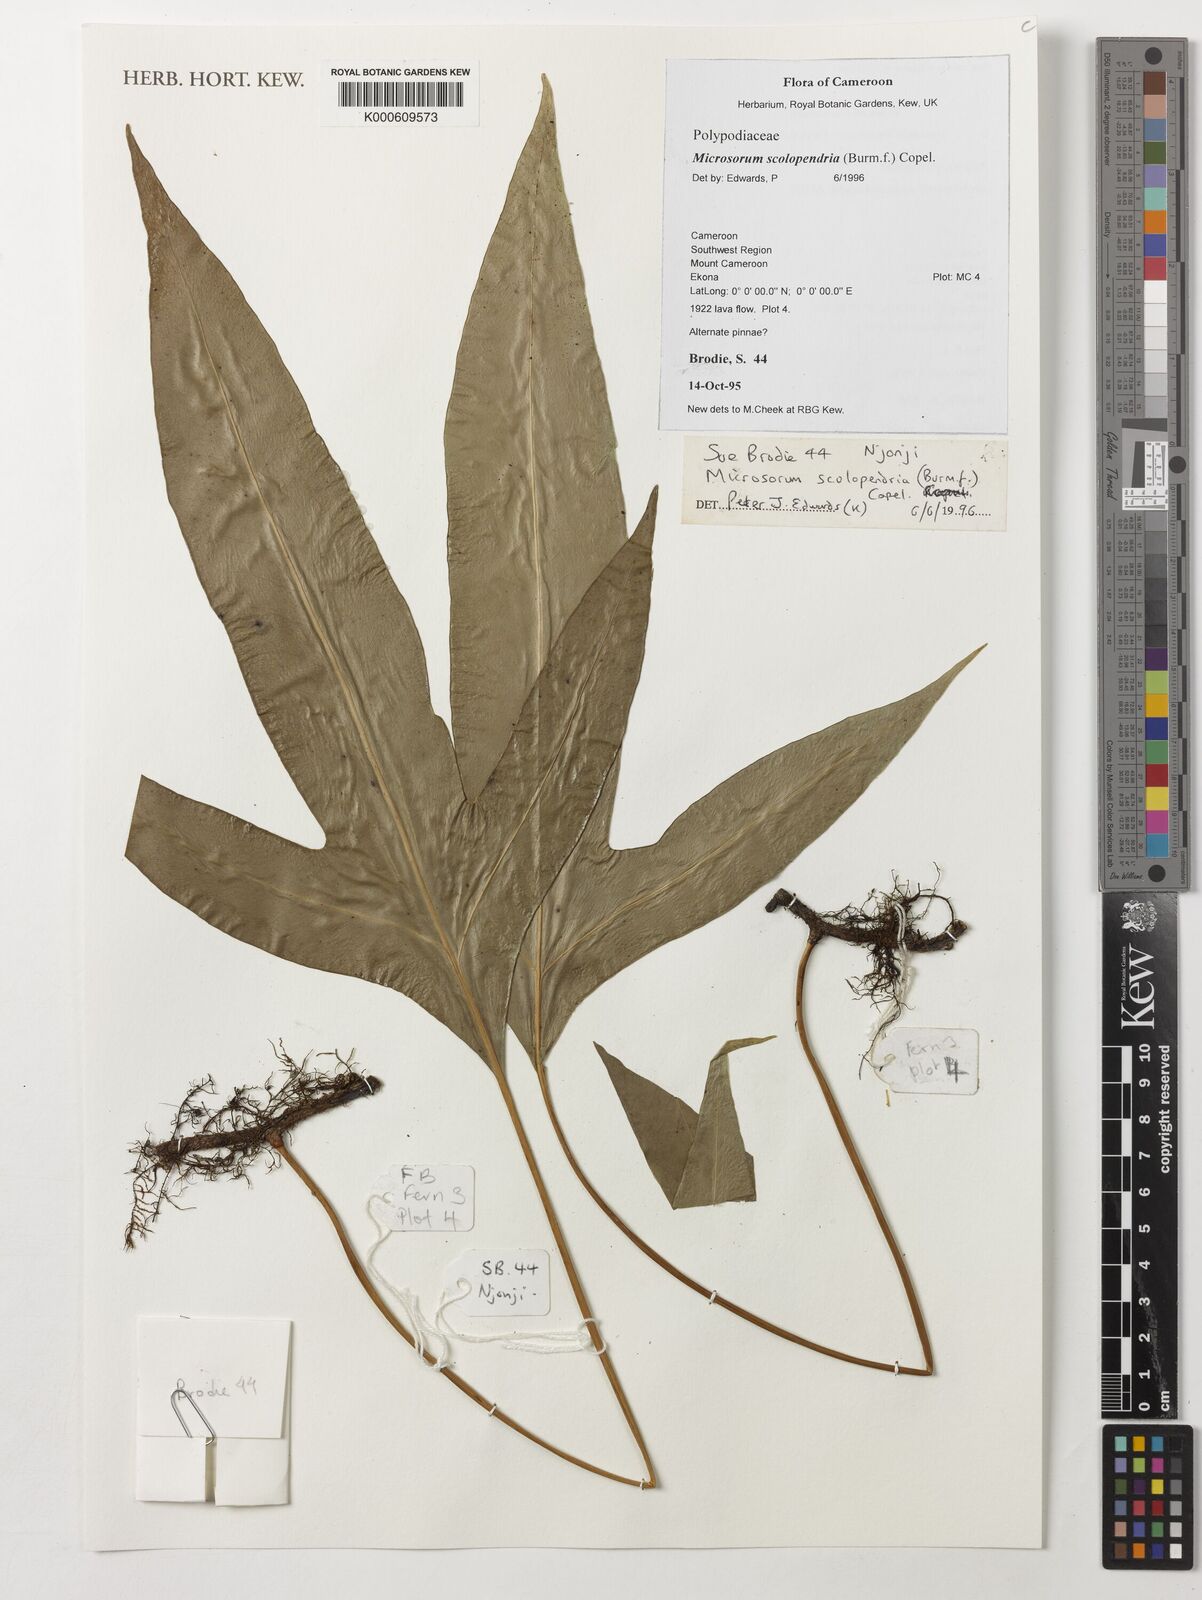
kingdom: Plantae
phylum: Tracheophyta
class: Polypodiopsida
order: Polypodiales
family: Polypodiaceae
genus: Microsorum
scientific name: Microsorum scolopendria
